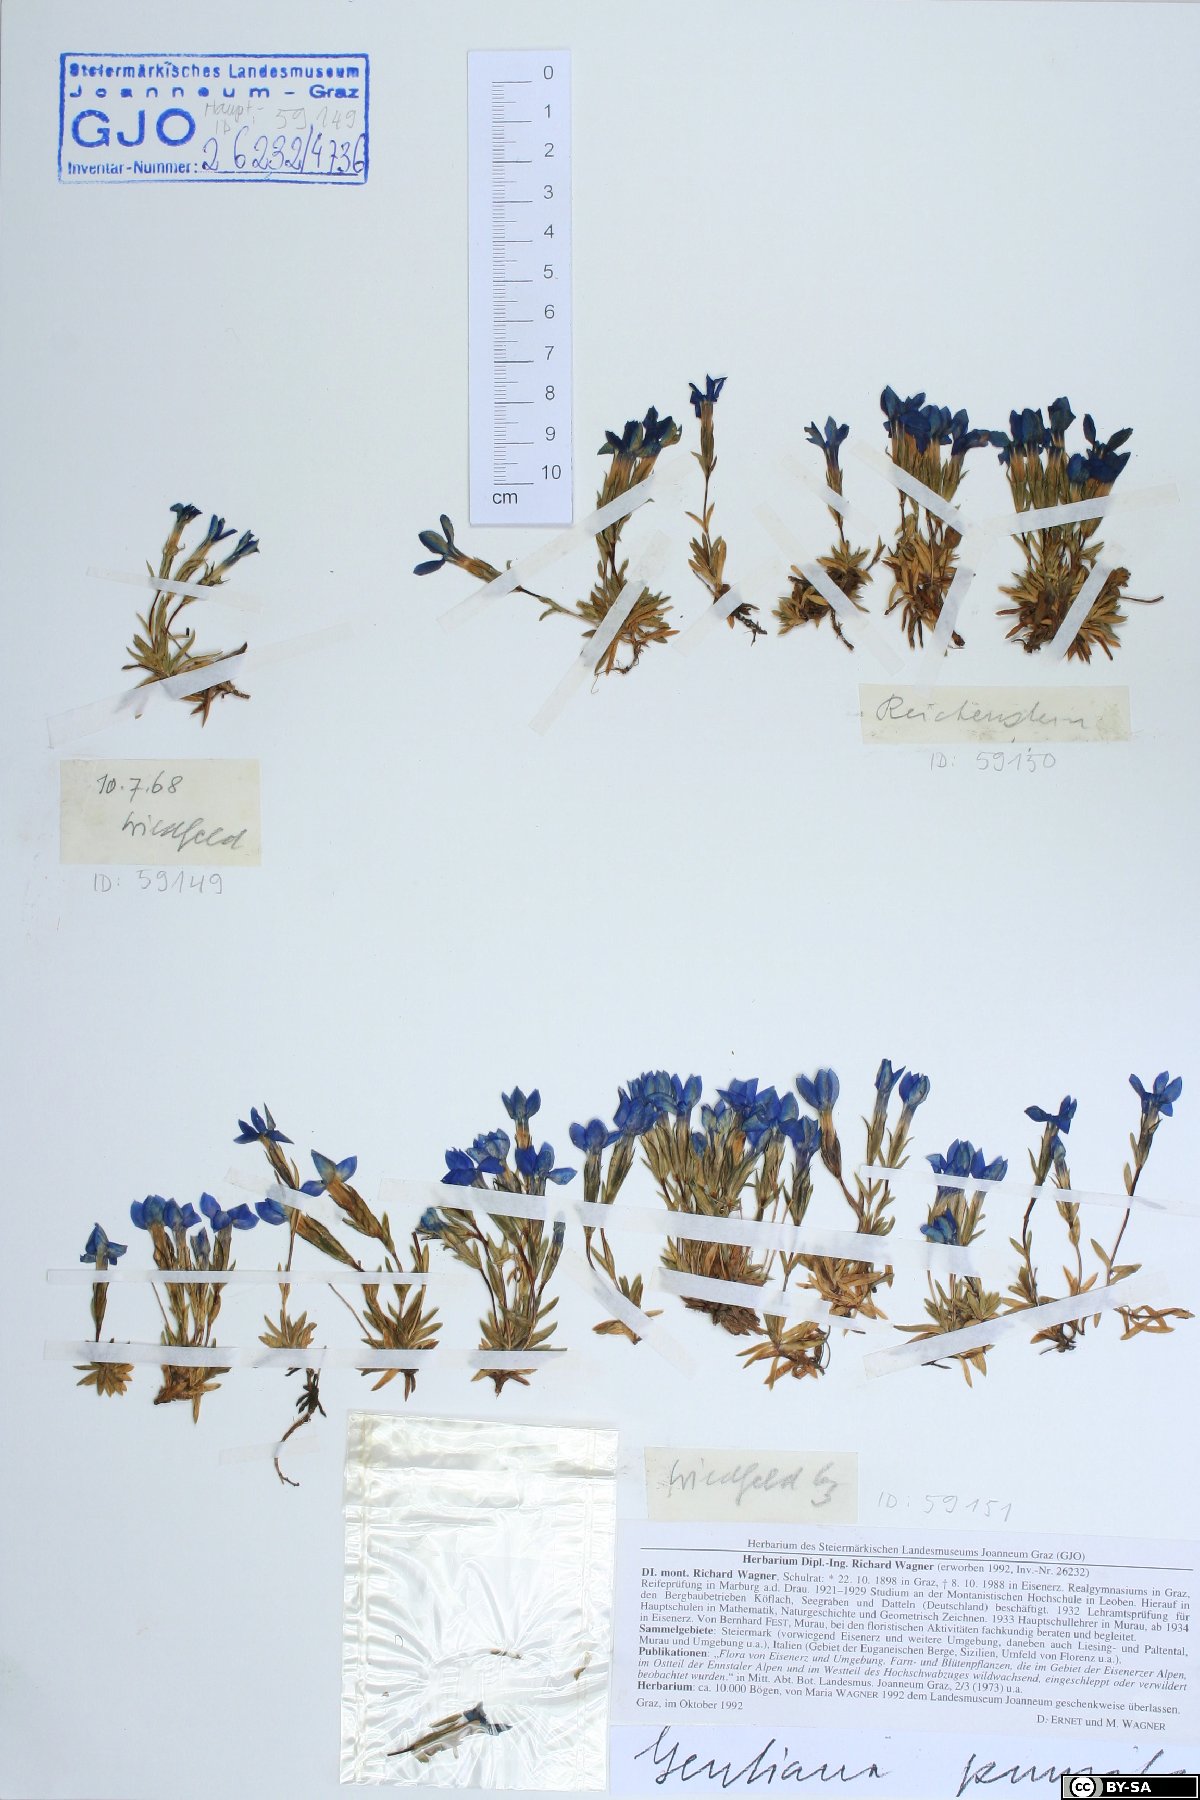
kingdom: Plantae
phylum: Tracheophyta
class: Magnoliopsida
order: Gentianales
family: Gentianaceae
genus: Gentiana
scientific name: Gentiana pumila
